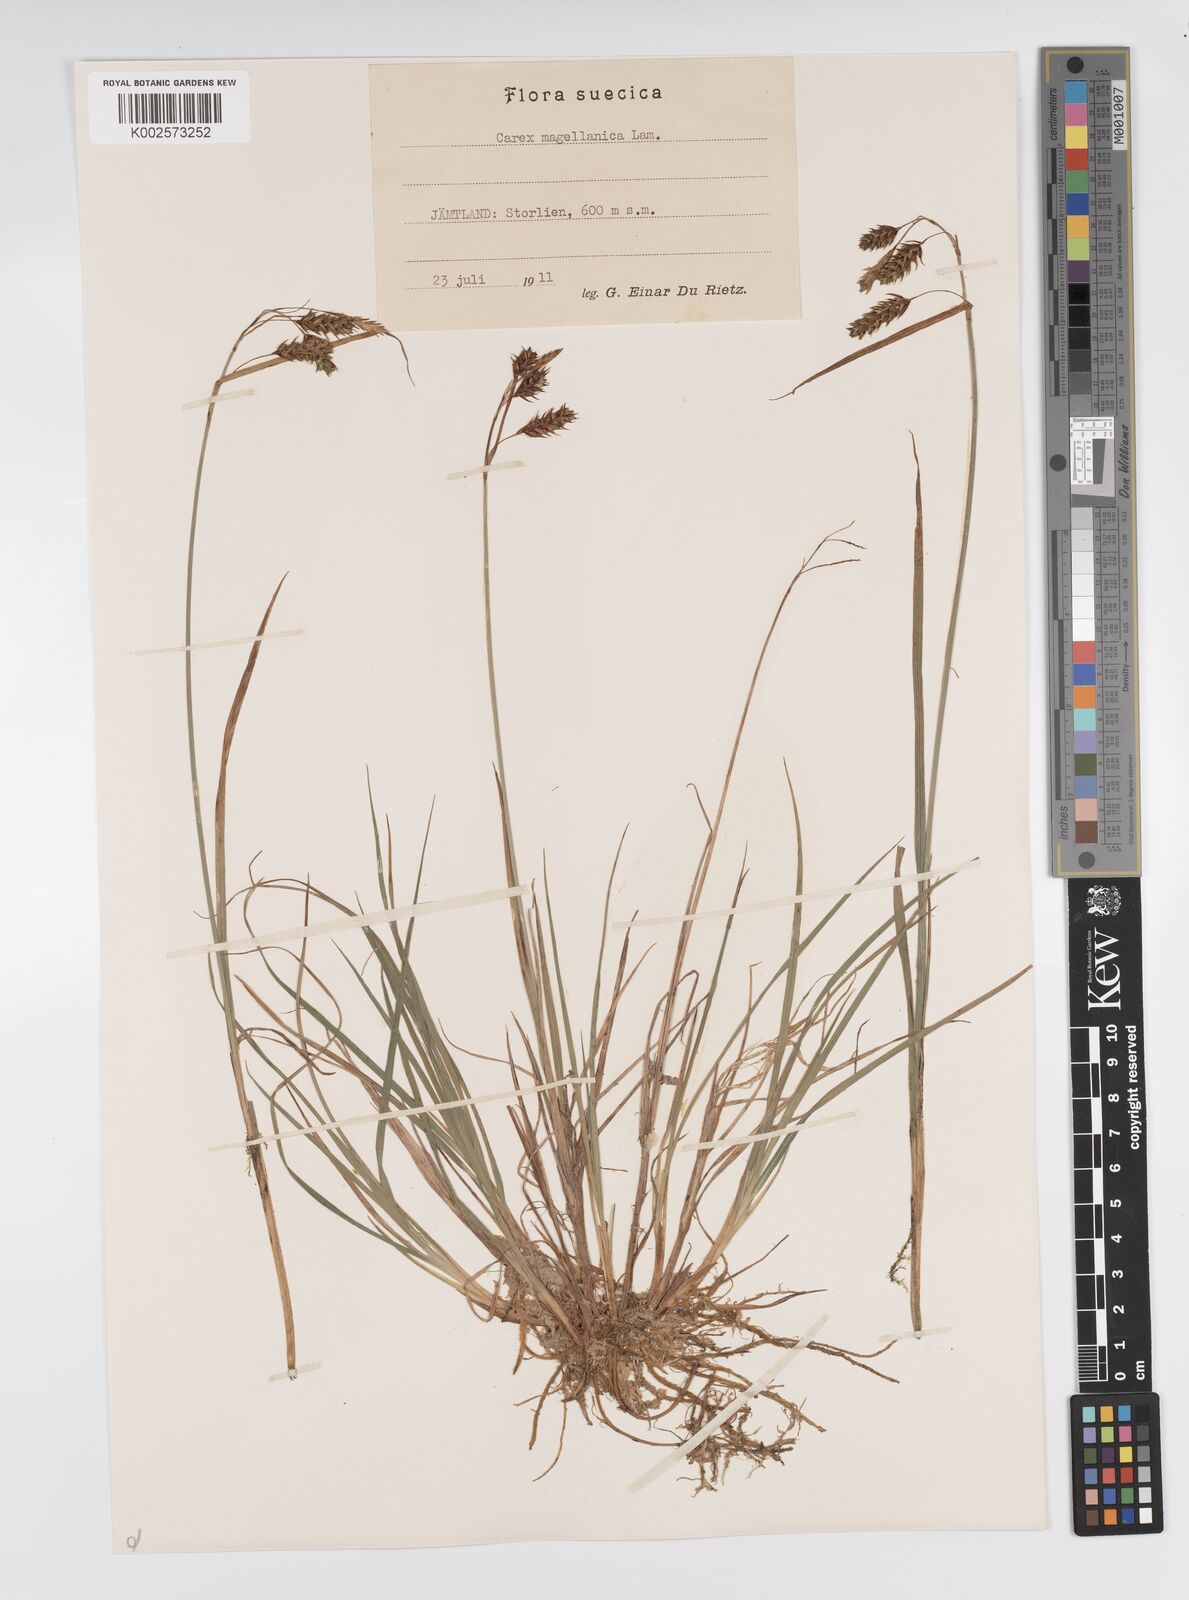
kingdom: Plantae
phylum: Tracheophyta
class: Liliopsida
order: Poales
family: Cyperaceae
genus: Carex
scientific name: Carex magellanica
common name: Bog sedge
